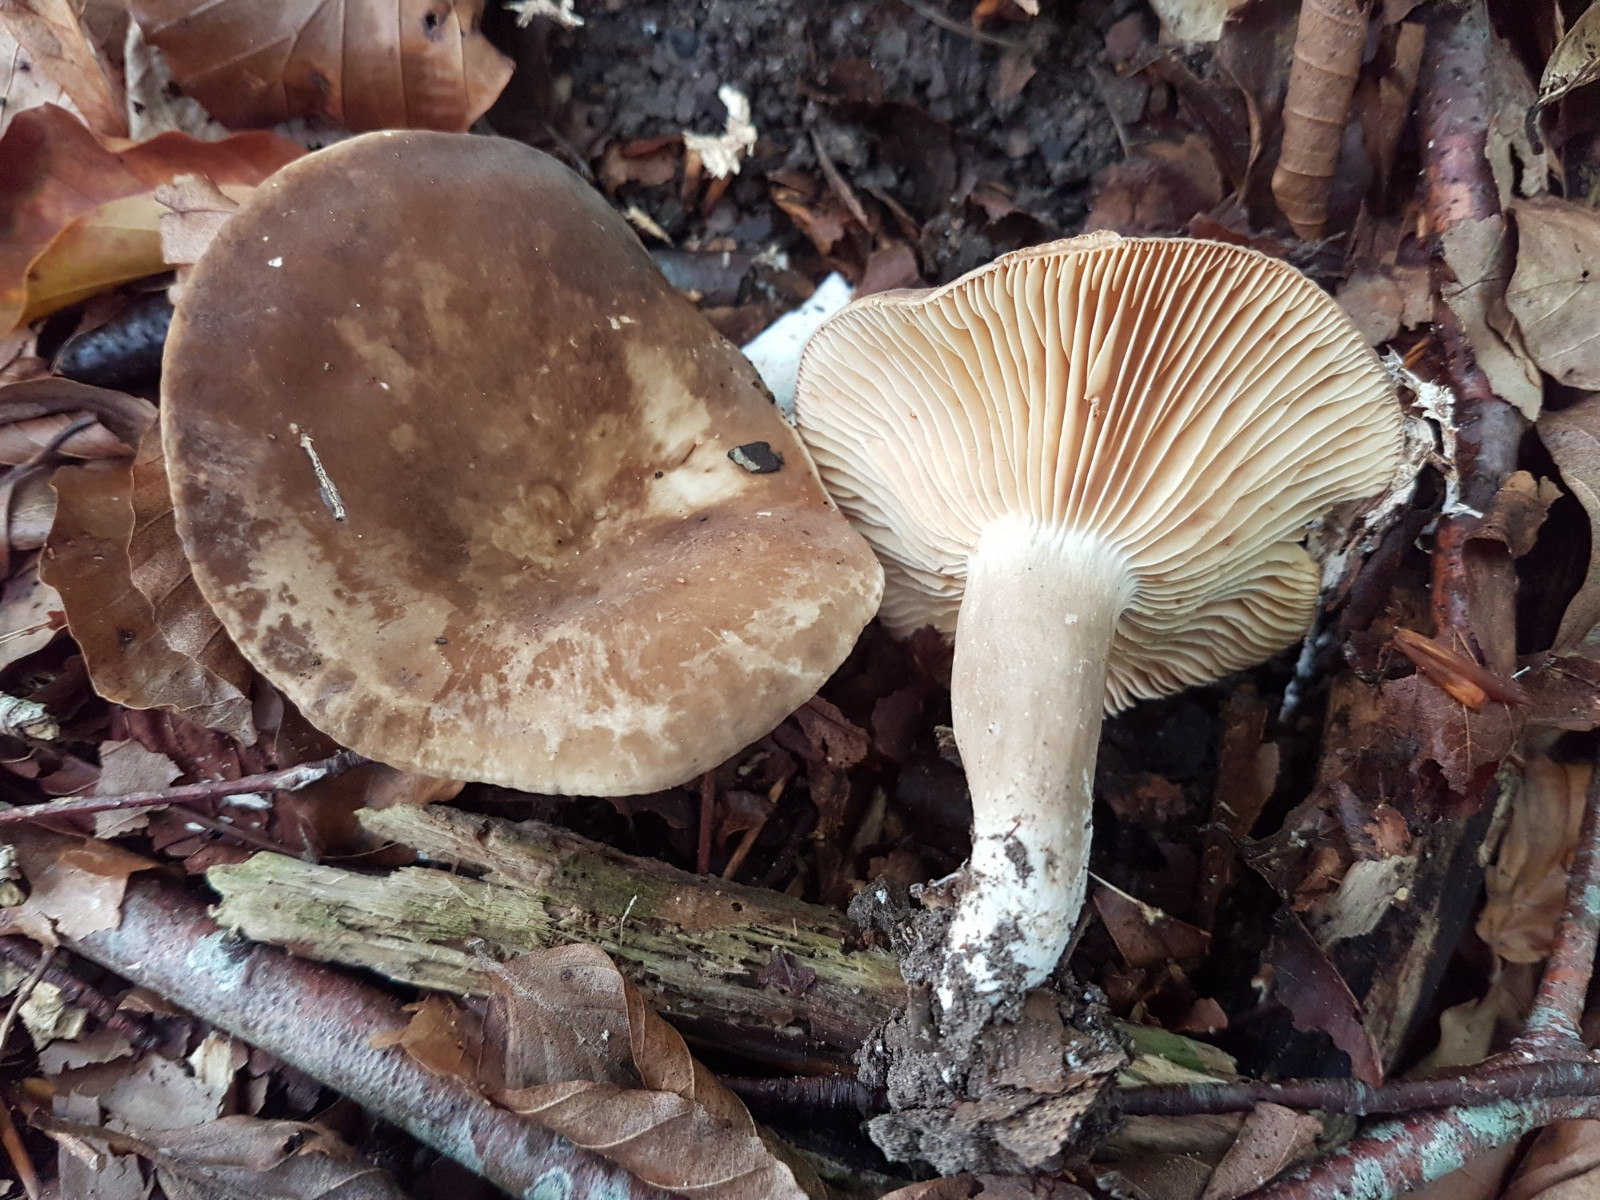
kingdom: Fungi
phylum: Basidiomycota
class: Agaricomycetes
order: Russulales
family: Russulaceae
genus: Lactarius
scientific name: Lactarius pterosporus
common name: vingesporet mælkehat
